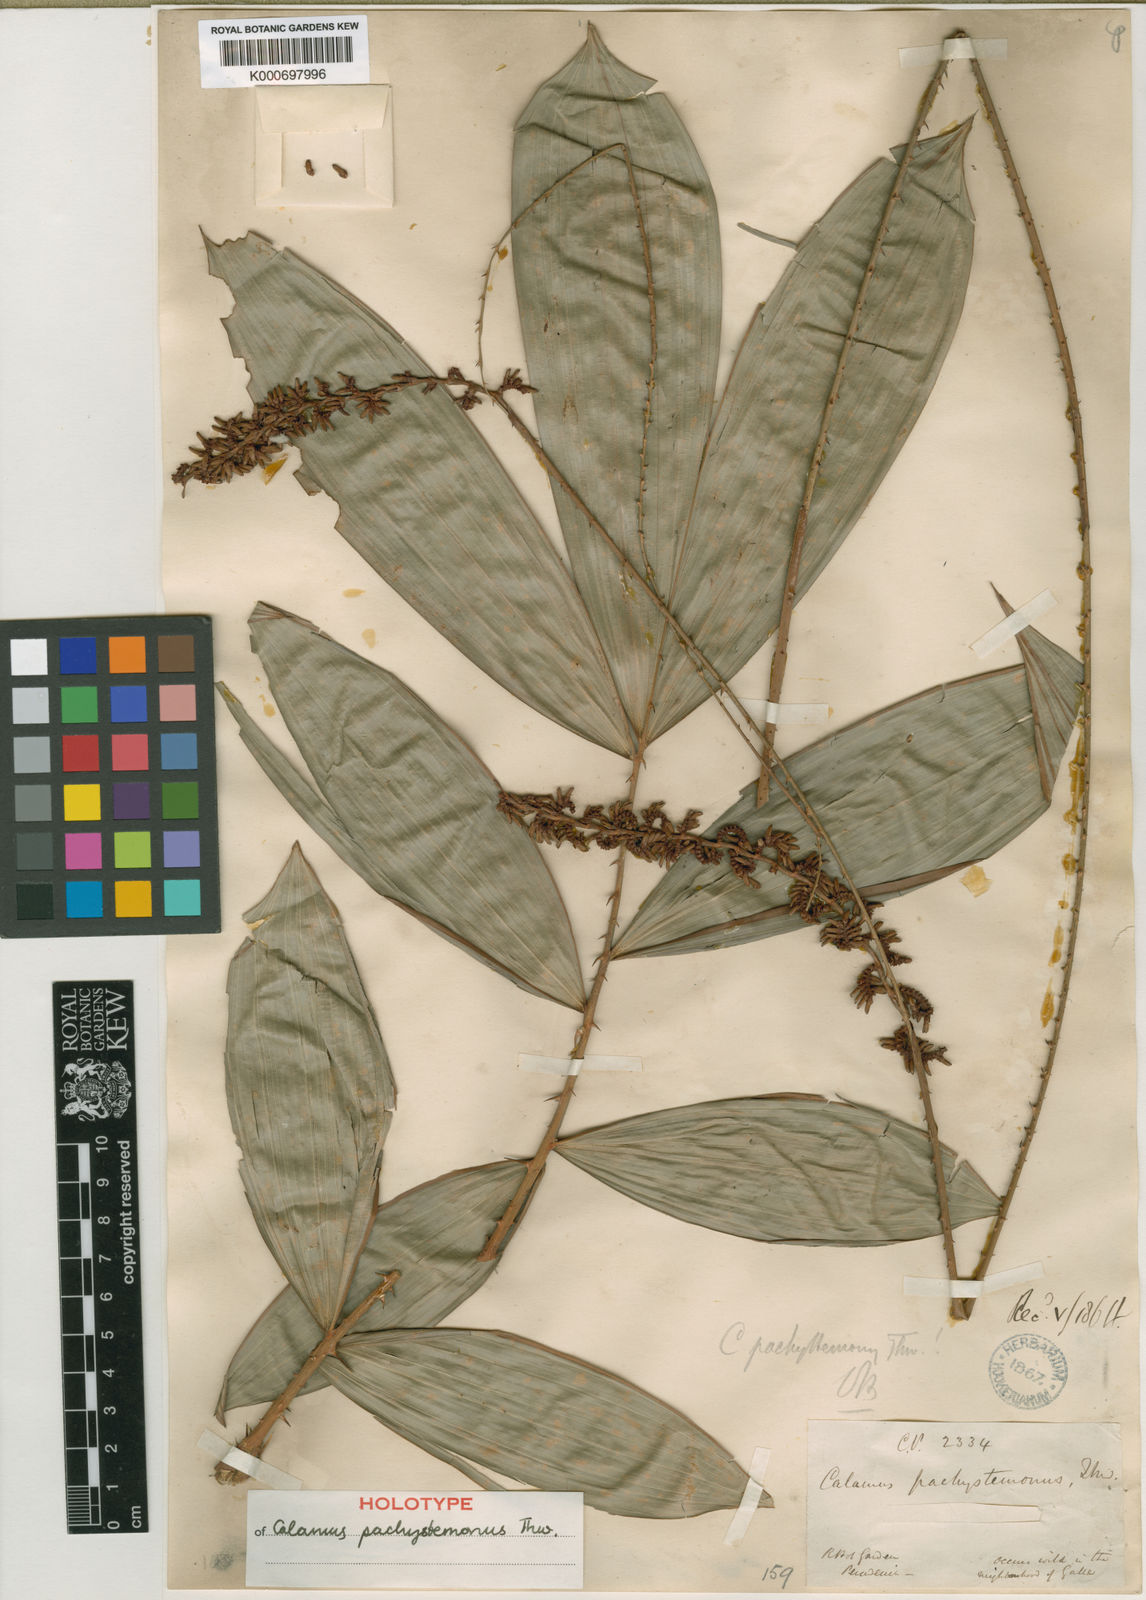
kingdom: Plantae
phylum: Tracheophyta
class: Liliopsida
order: Arecales
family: Arecaceae
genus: Calamus
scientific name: Calamus pachystemonus
